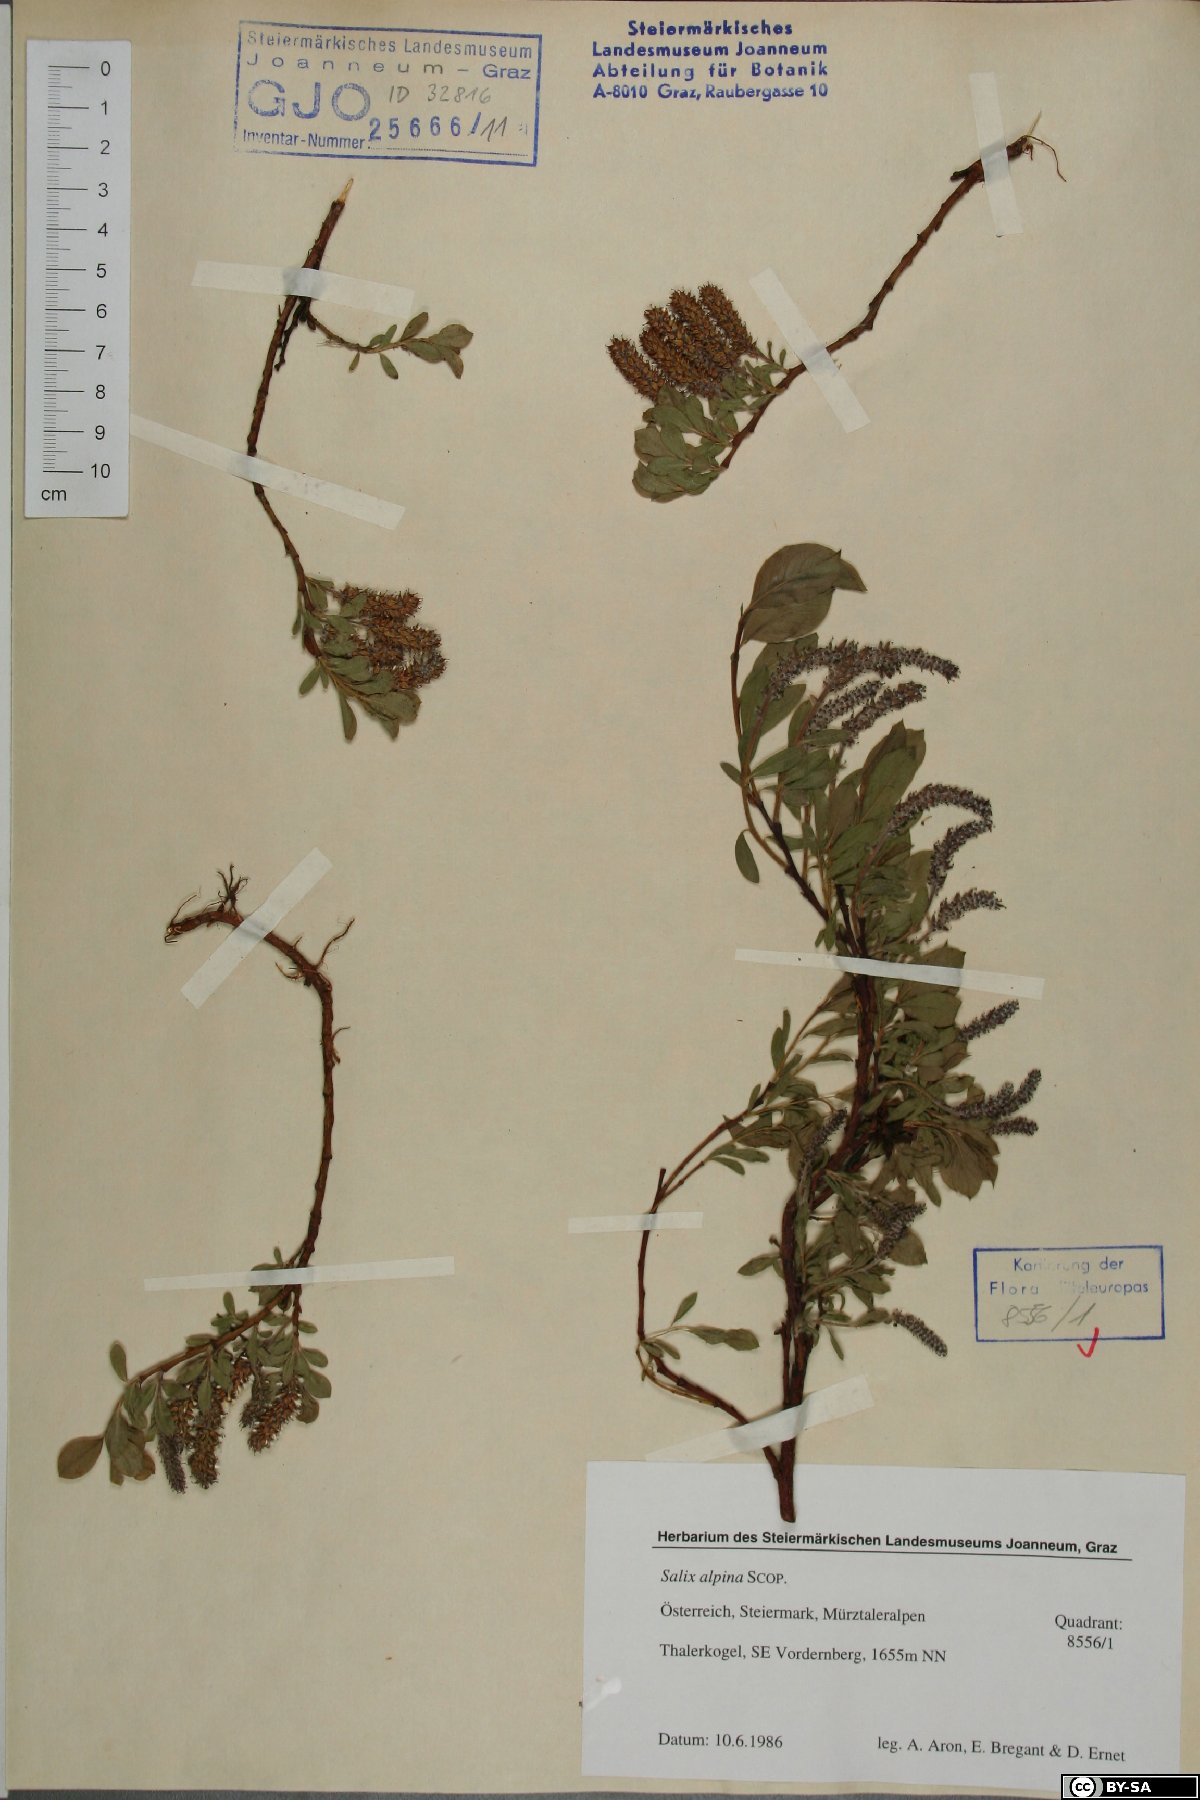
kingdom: Plantae
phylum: Tracheophyta
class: Magnoliopsida
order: Malpighiales
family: Salicaceae
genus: Salix
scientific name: Salix alpina
